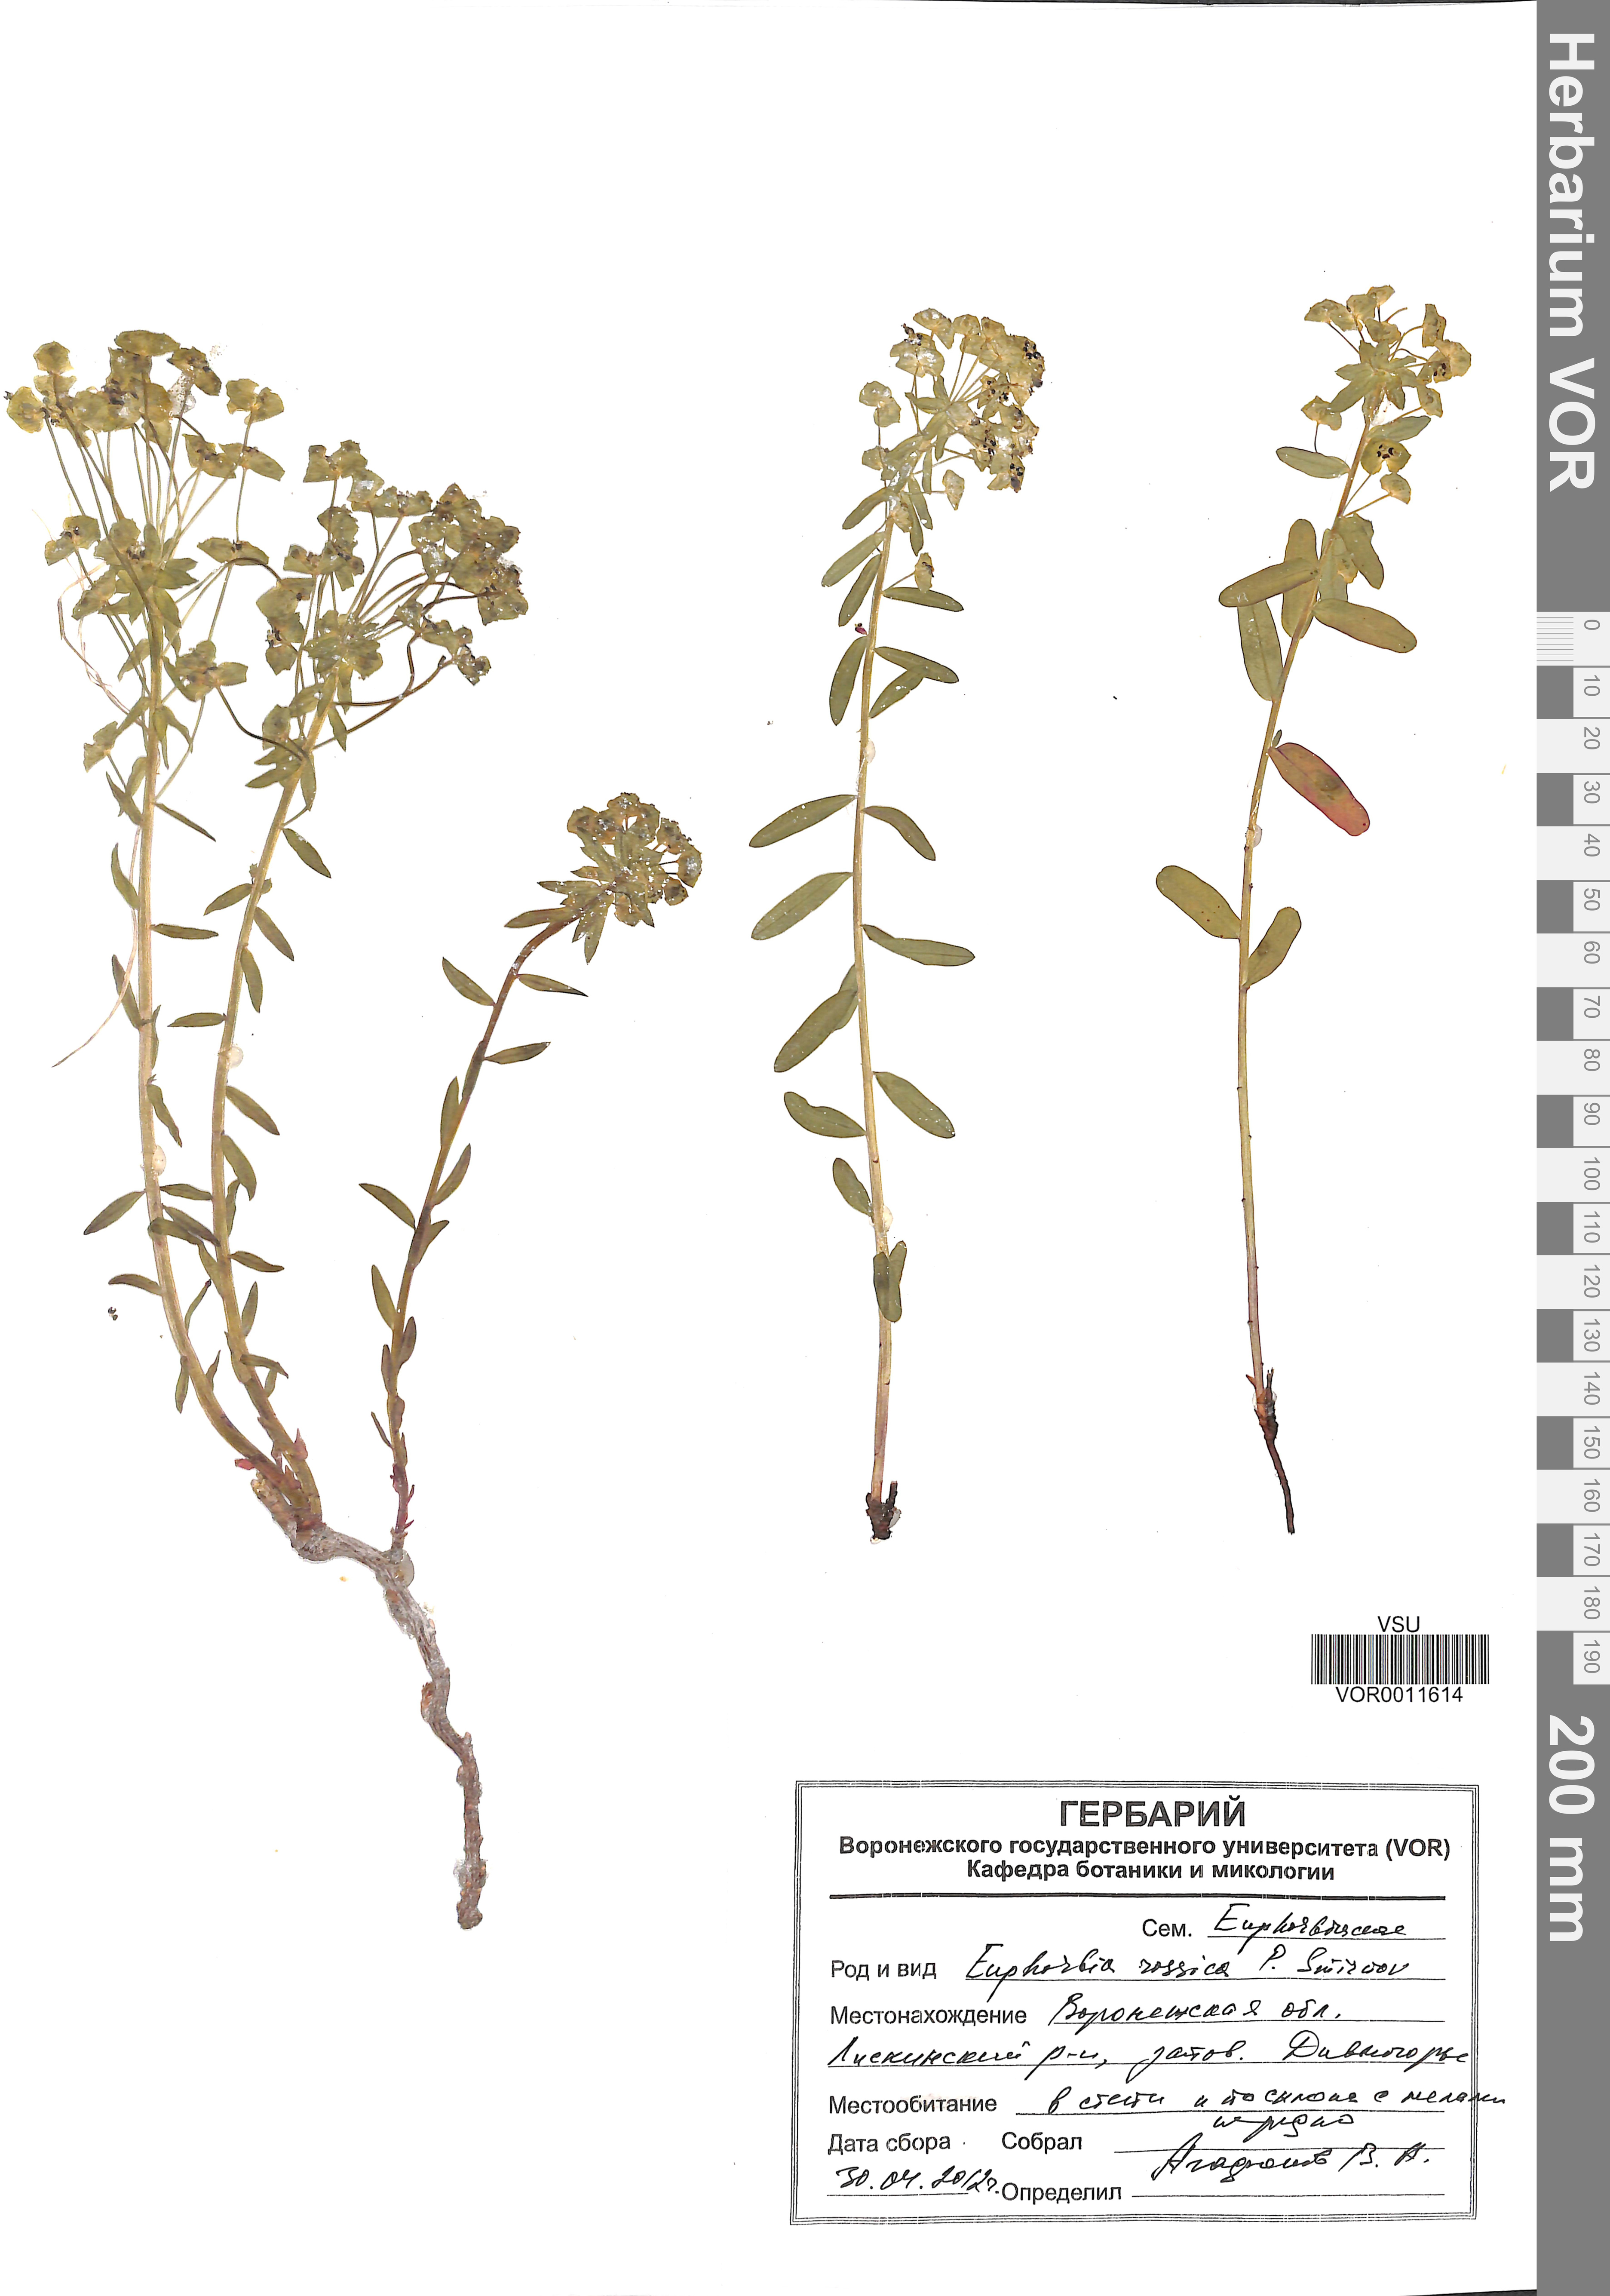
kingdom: Plantae
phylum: Tracheophyta
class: Magnoliopsida
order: Malpighiales
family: Euphorbiaceae
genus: Euphorbia
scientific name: Euphorbia esula
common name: Leafy spurge
